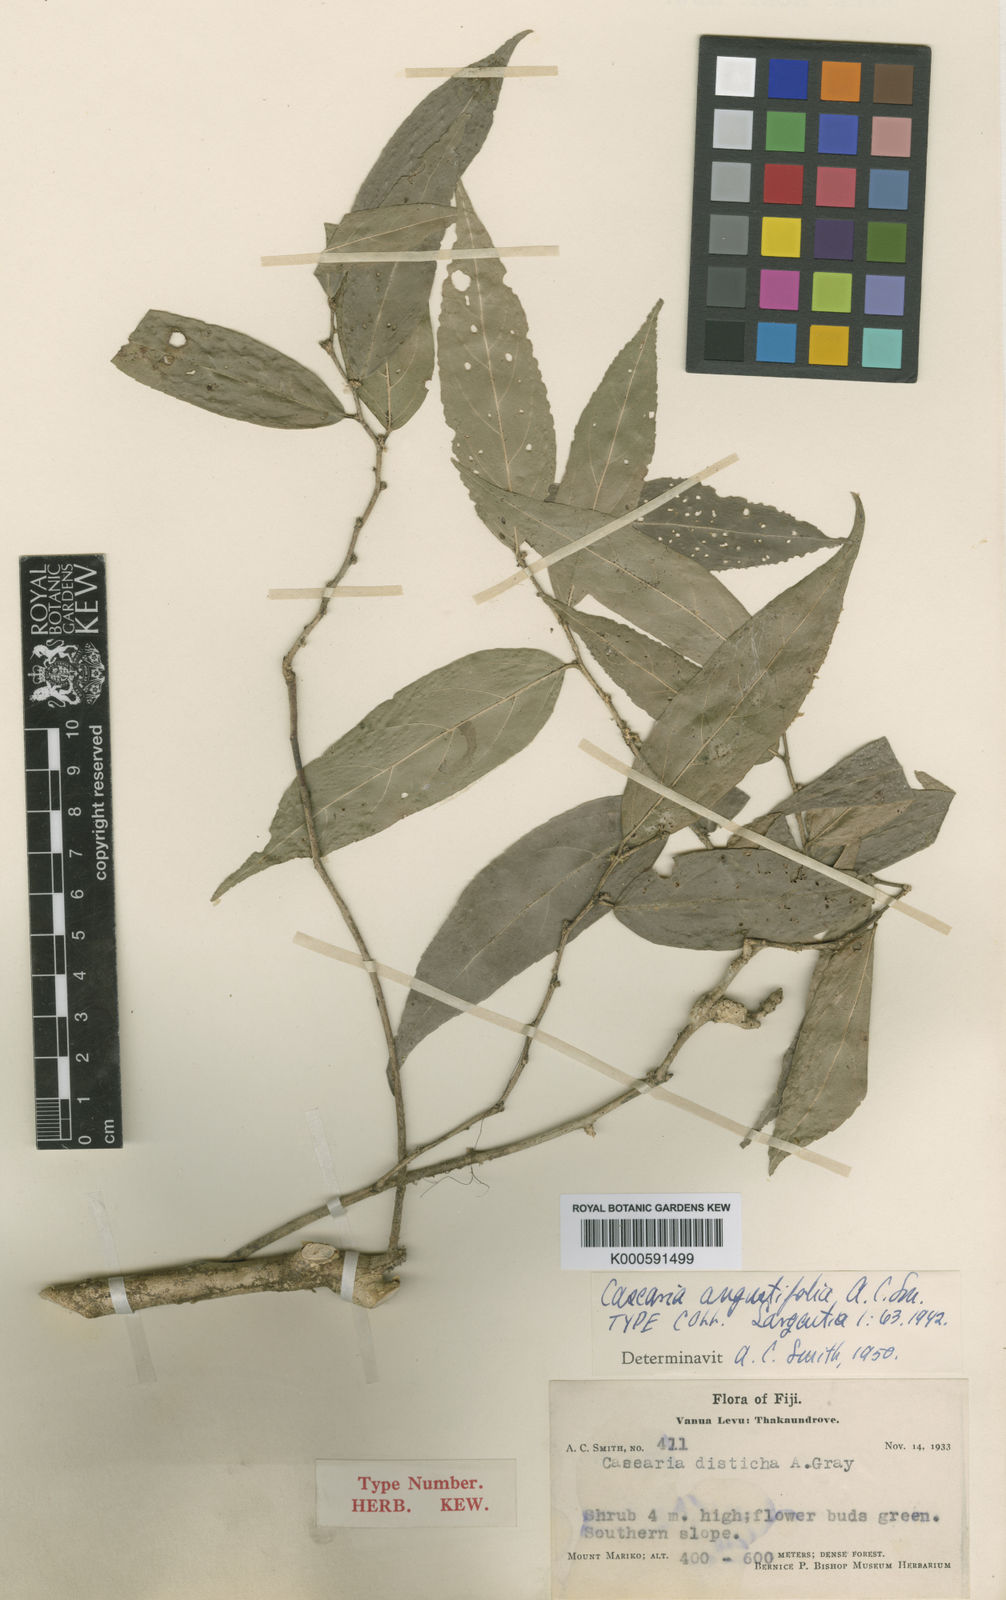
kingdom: Plantae
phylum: Tracheophyta
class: Magnoliopsida
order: Malpighiales
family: Salicaceae
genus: Casearia
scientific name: Casearia angustifolia
